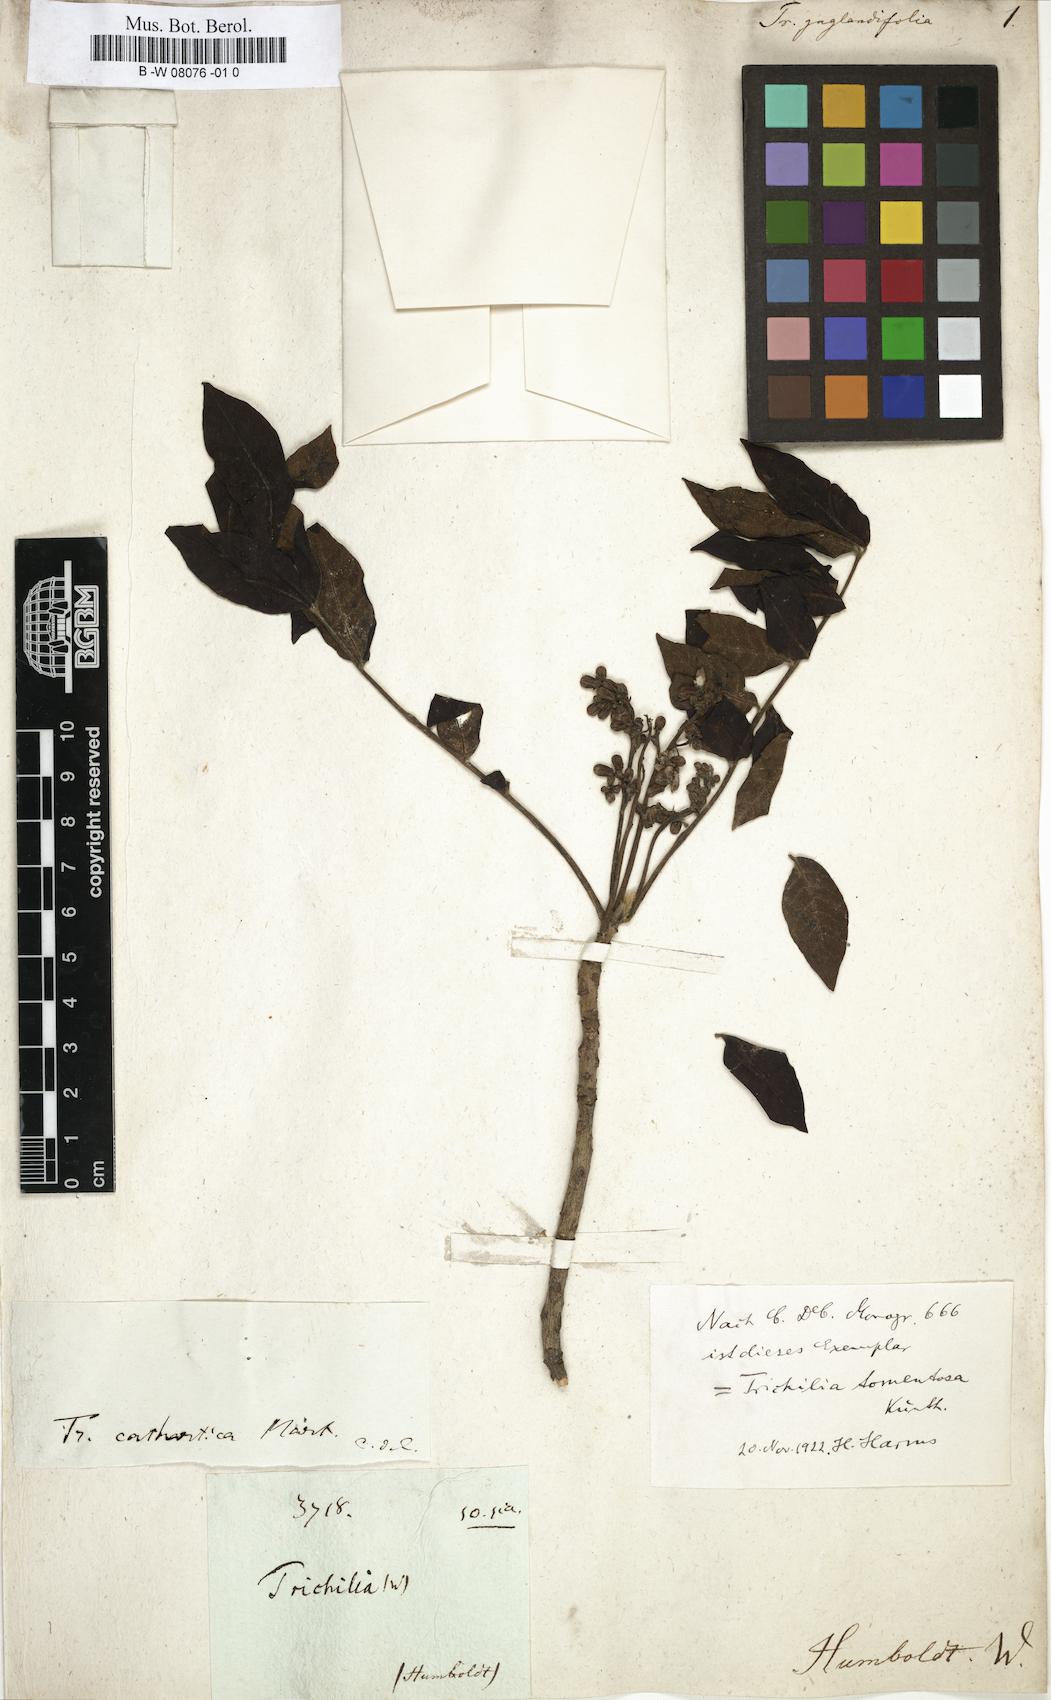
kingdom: Plantae
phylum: Tracheophyta
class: Magnoliopsida
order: Sapindales
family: Meliaceae
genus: Trichilia
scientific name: Trichilia
